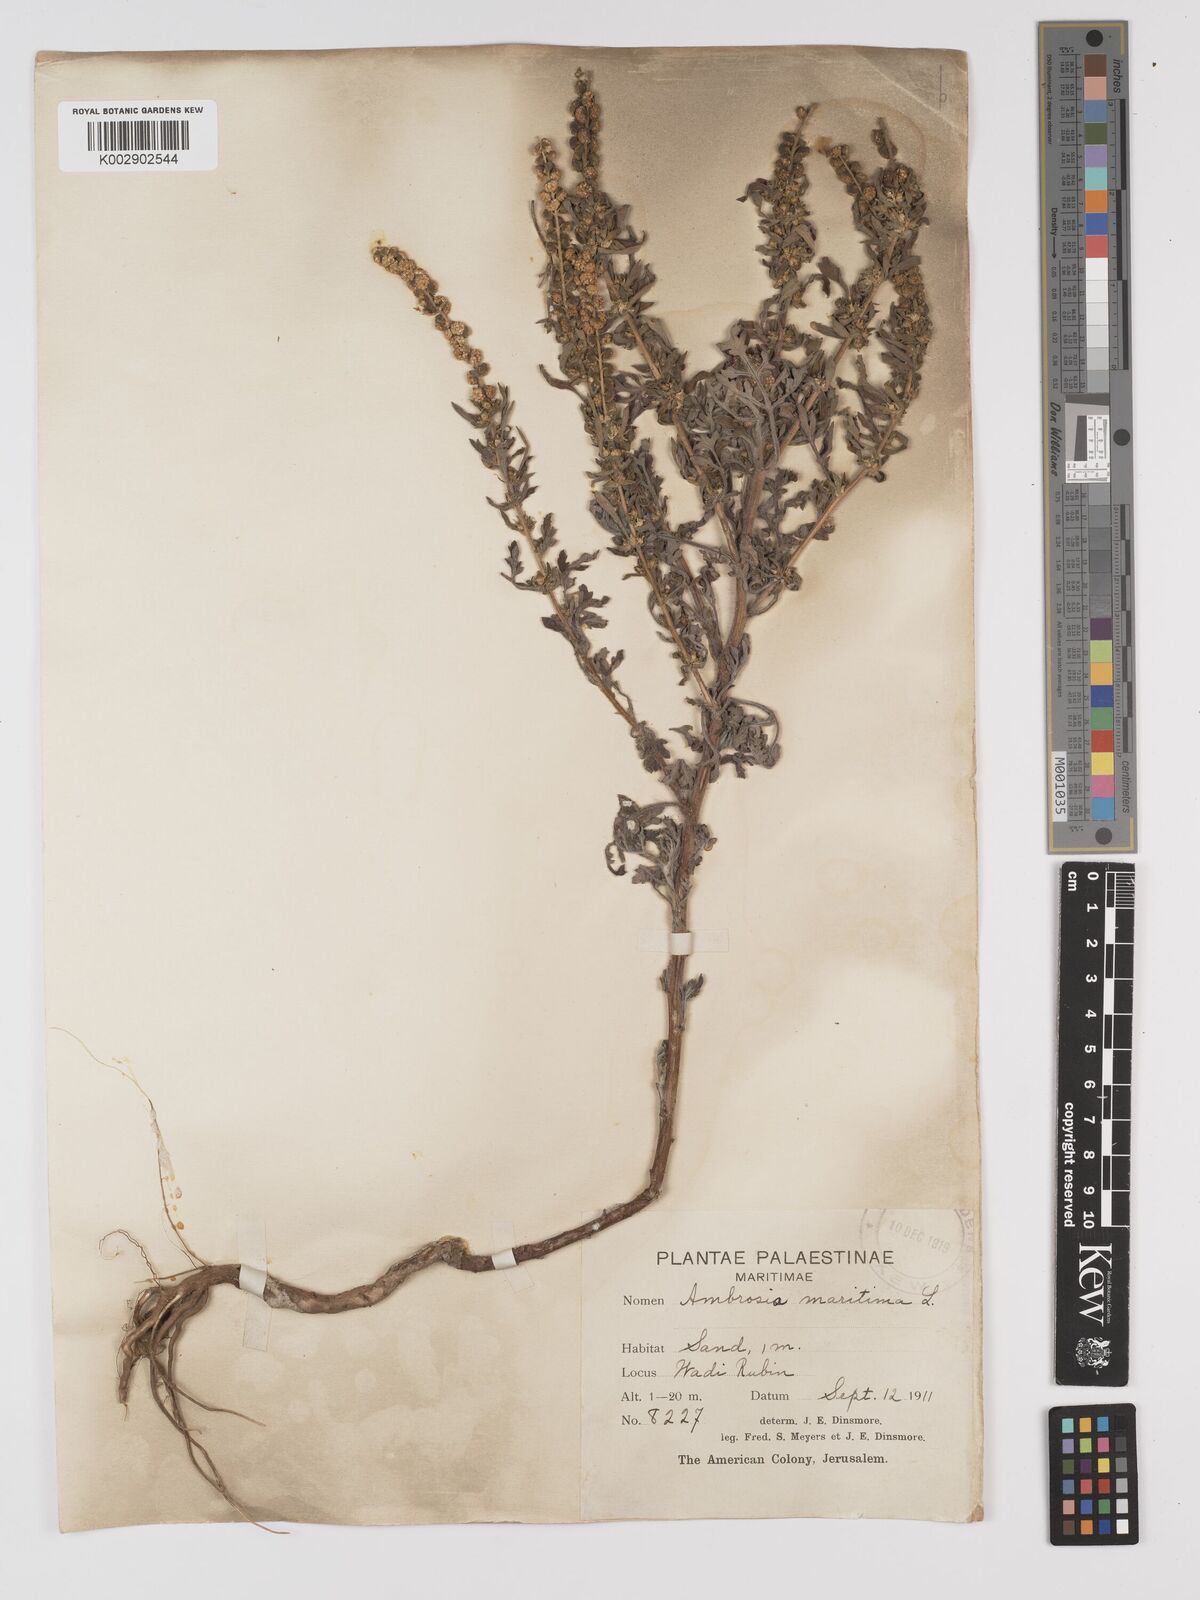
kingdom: Plantae
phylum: Tracheophyta
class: Magnoliopsida
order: Asterales
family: Asteraceae
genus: Ambrosia
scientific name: Ambrosia maritima
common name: Sea ambrosia
